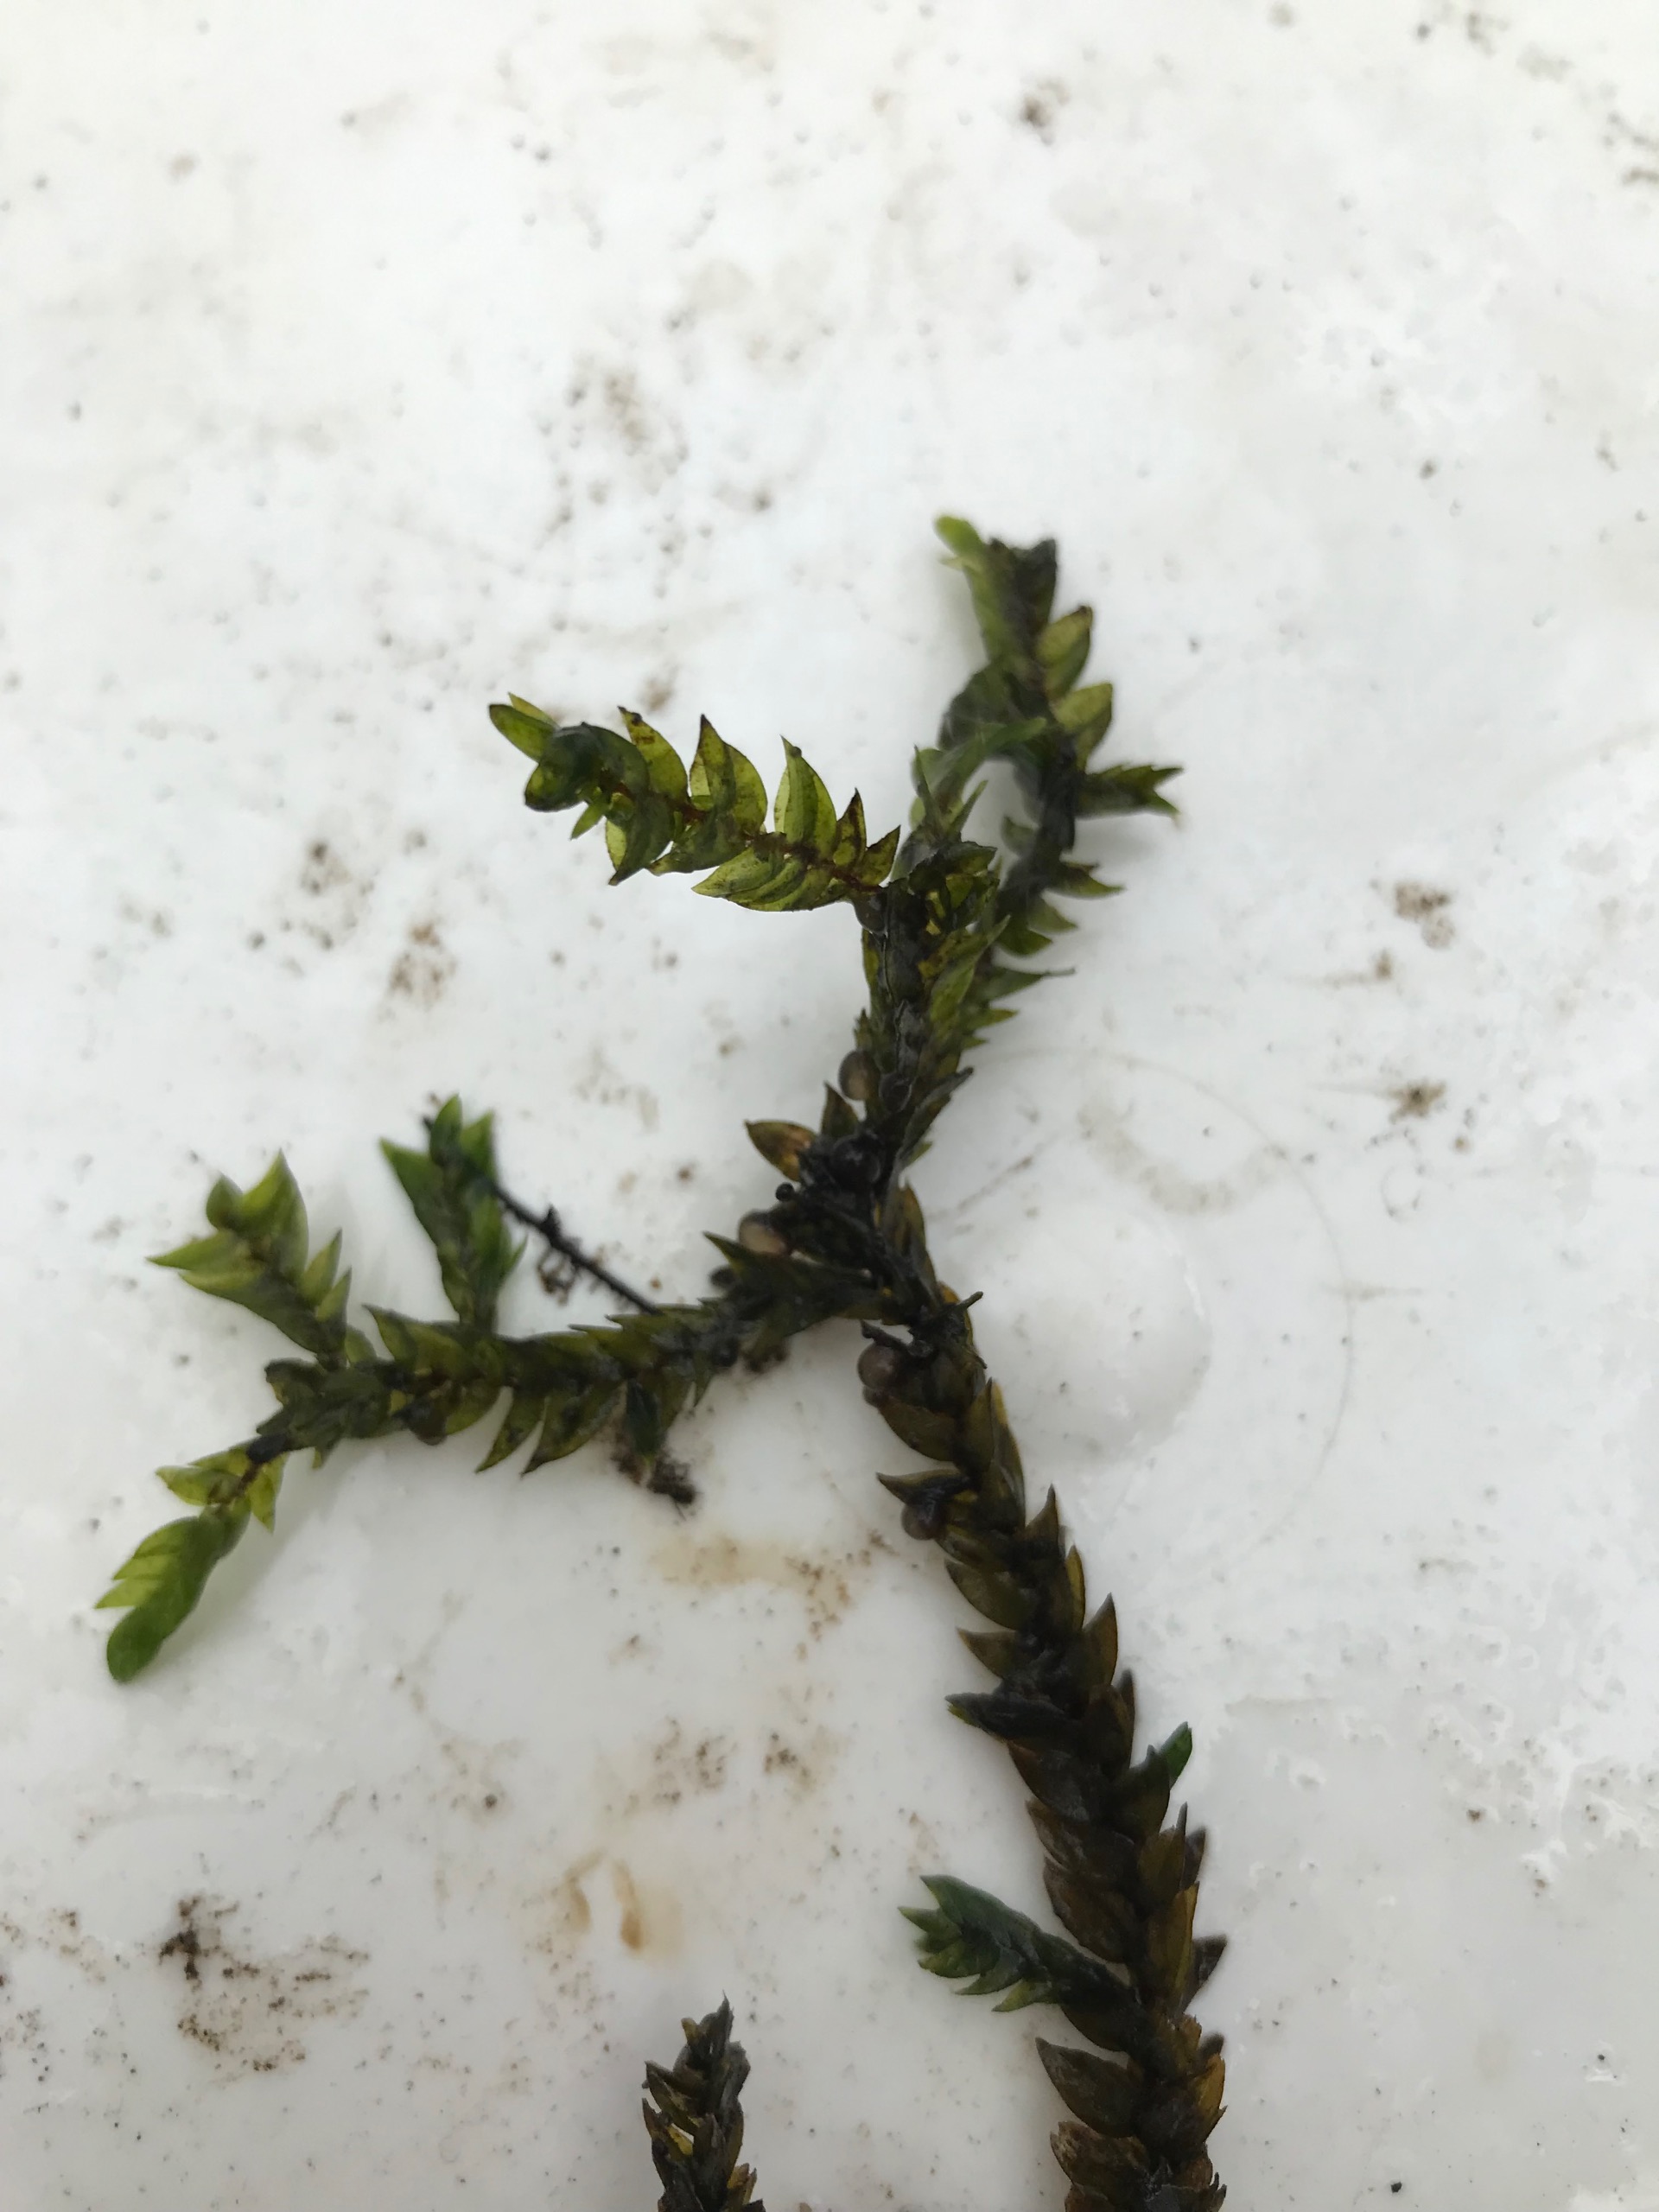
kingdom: Plantae
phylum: Bryophyta
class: Bryopsida
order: Hypnales
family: Fontinalaceae
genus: Fontinalis
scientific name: Fontinalis antipyretica
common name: Stor kildemos
